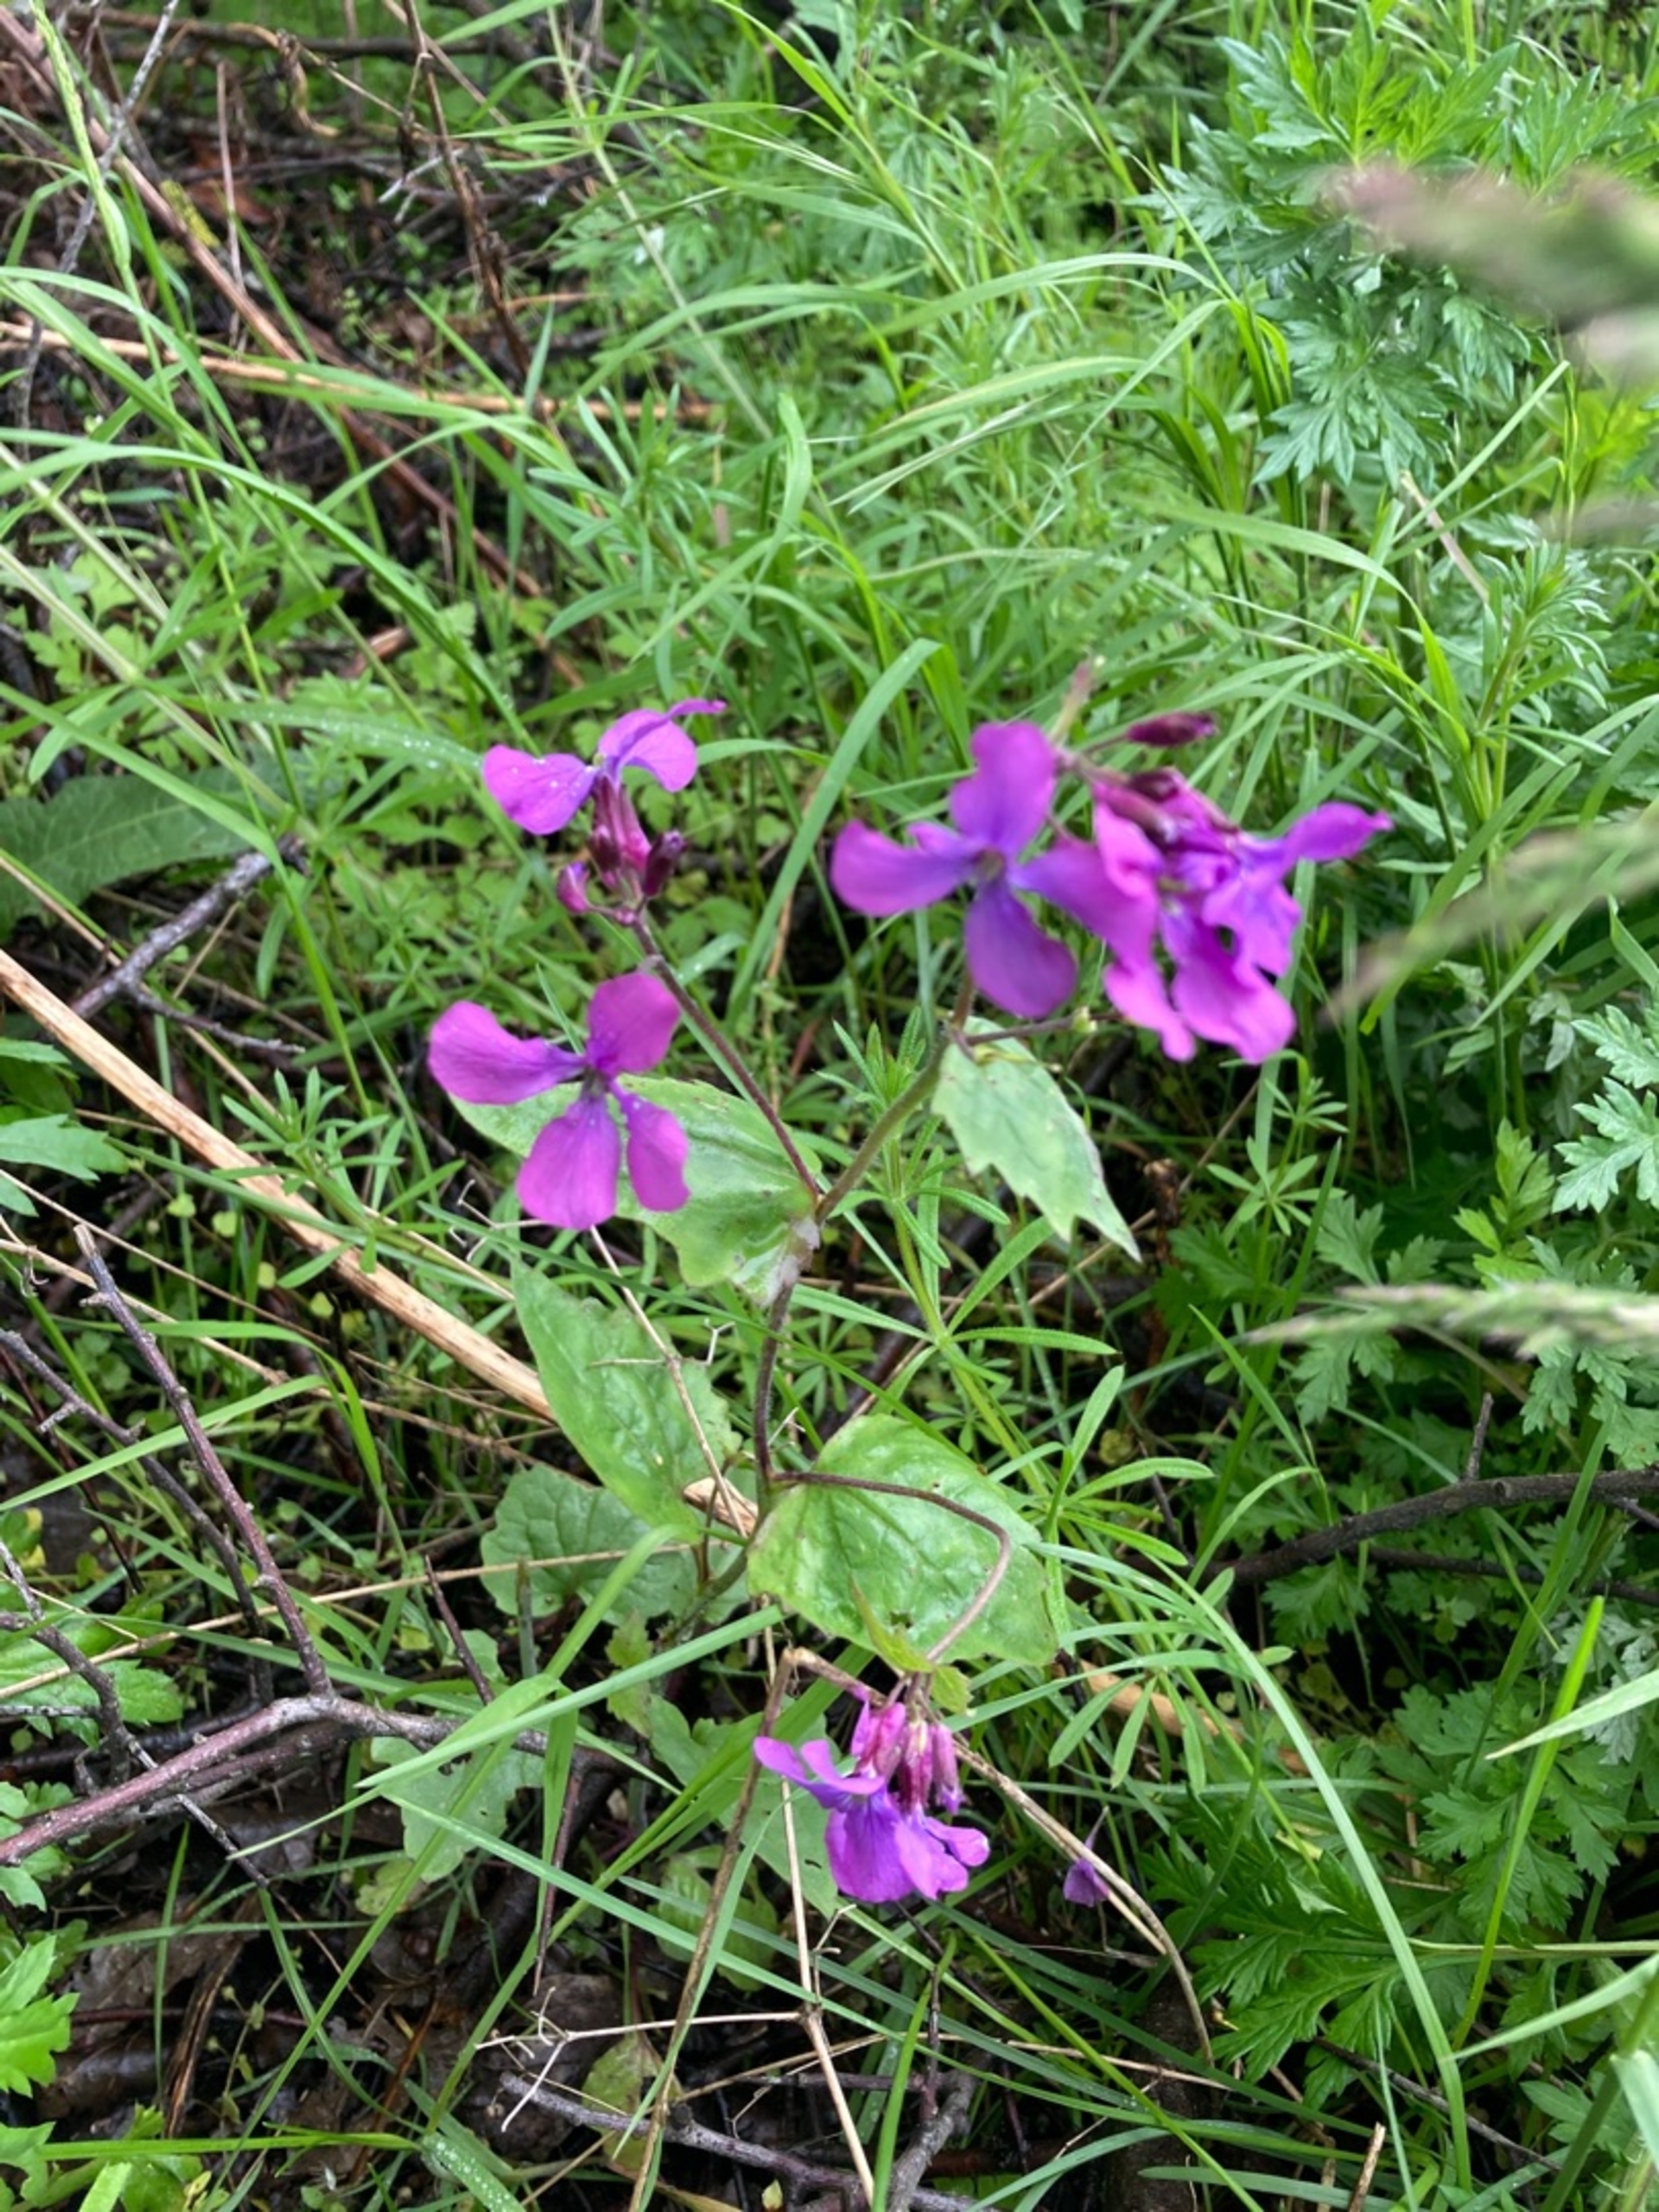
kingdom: Plantae
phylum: Tracheophyta
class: Magnoliopsida
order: Brassicales
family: Brassicaceae
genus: Lunaria
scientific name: Lunaria annua
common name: Judaspenge
